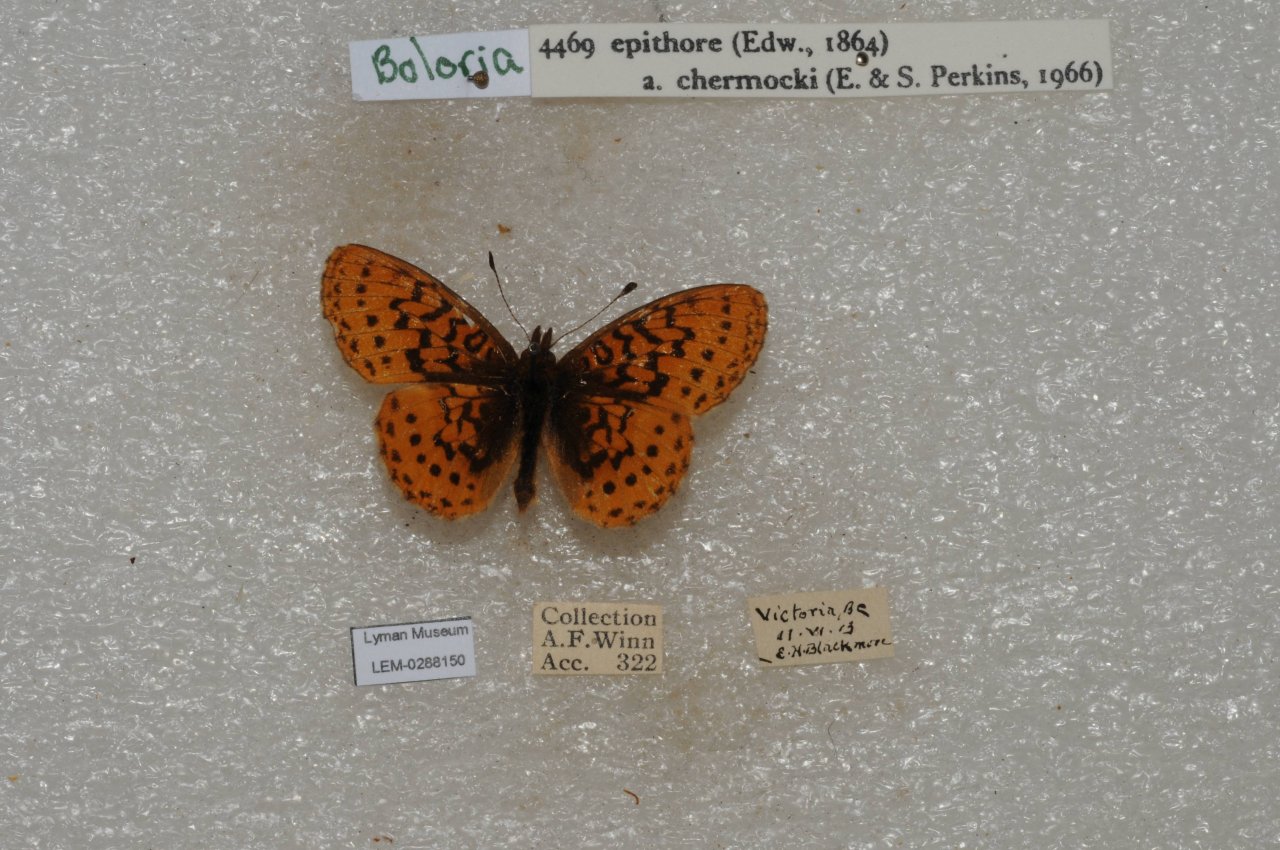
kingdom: Animalia
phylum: Arthropoda
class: Insecta
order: Lepidoptera
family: Nymphalidae
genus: Boloria
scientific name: Boloria epithore
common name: Pacific Fritillary
